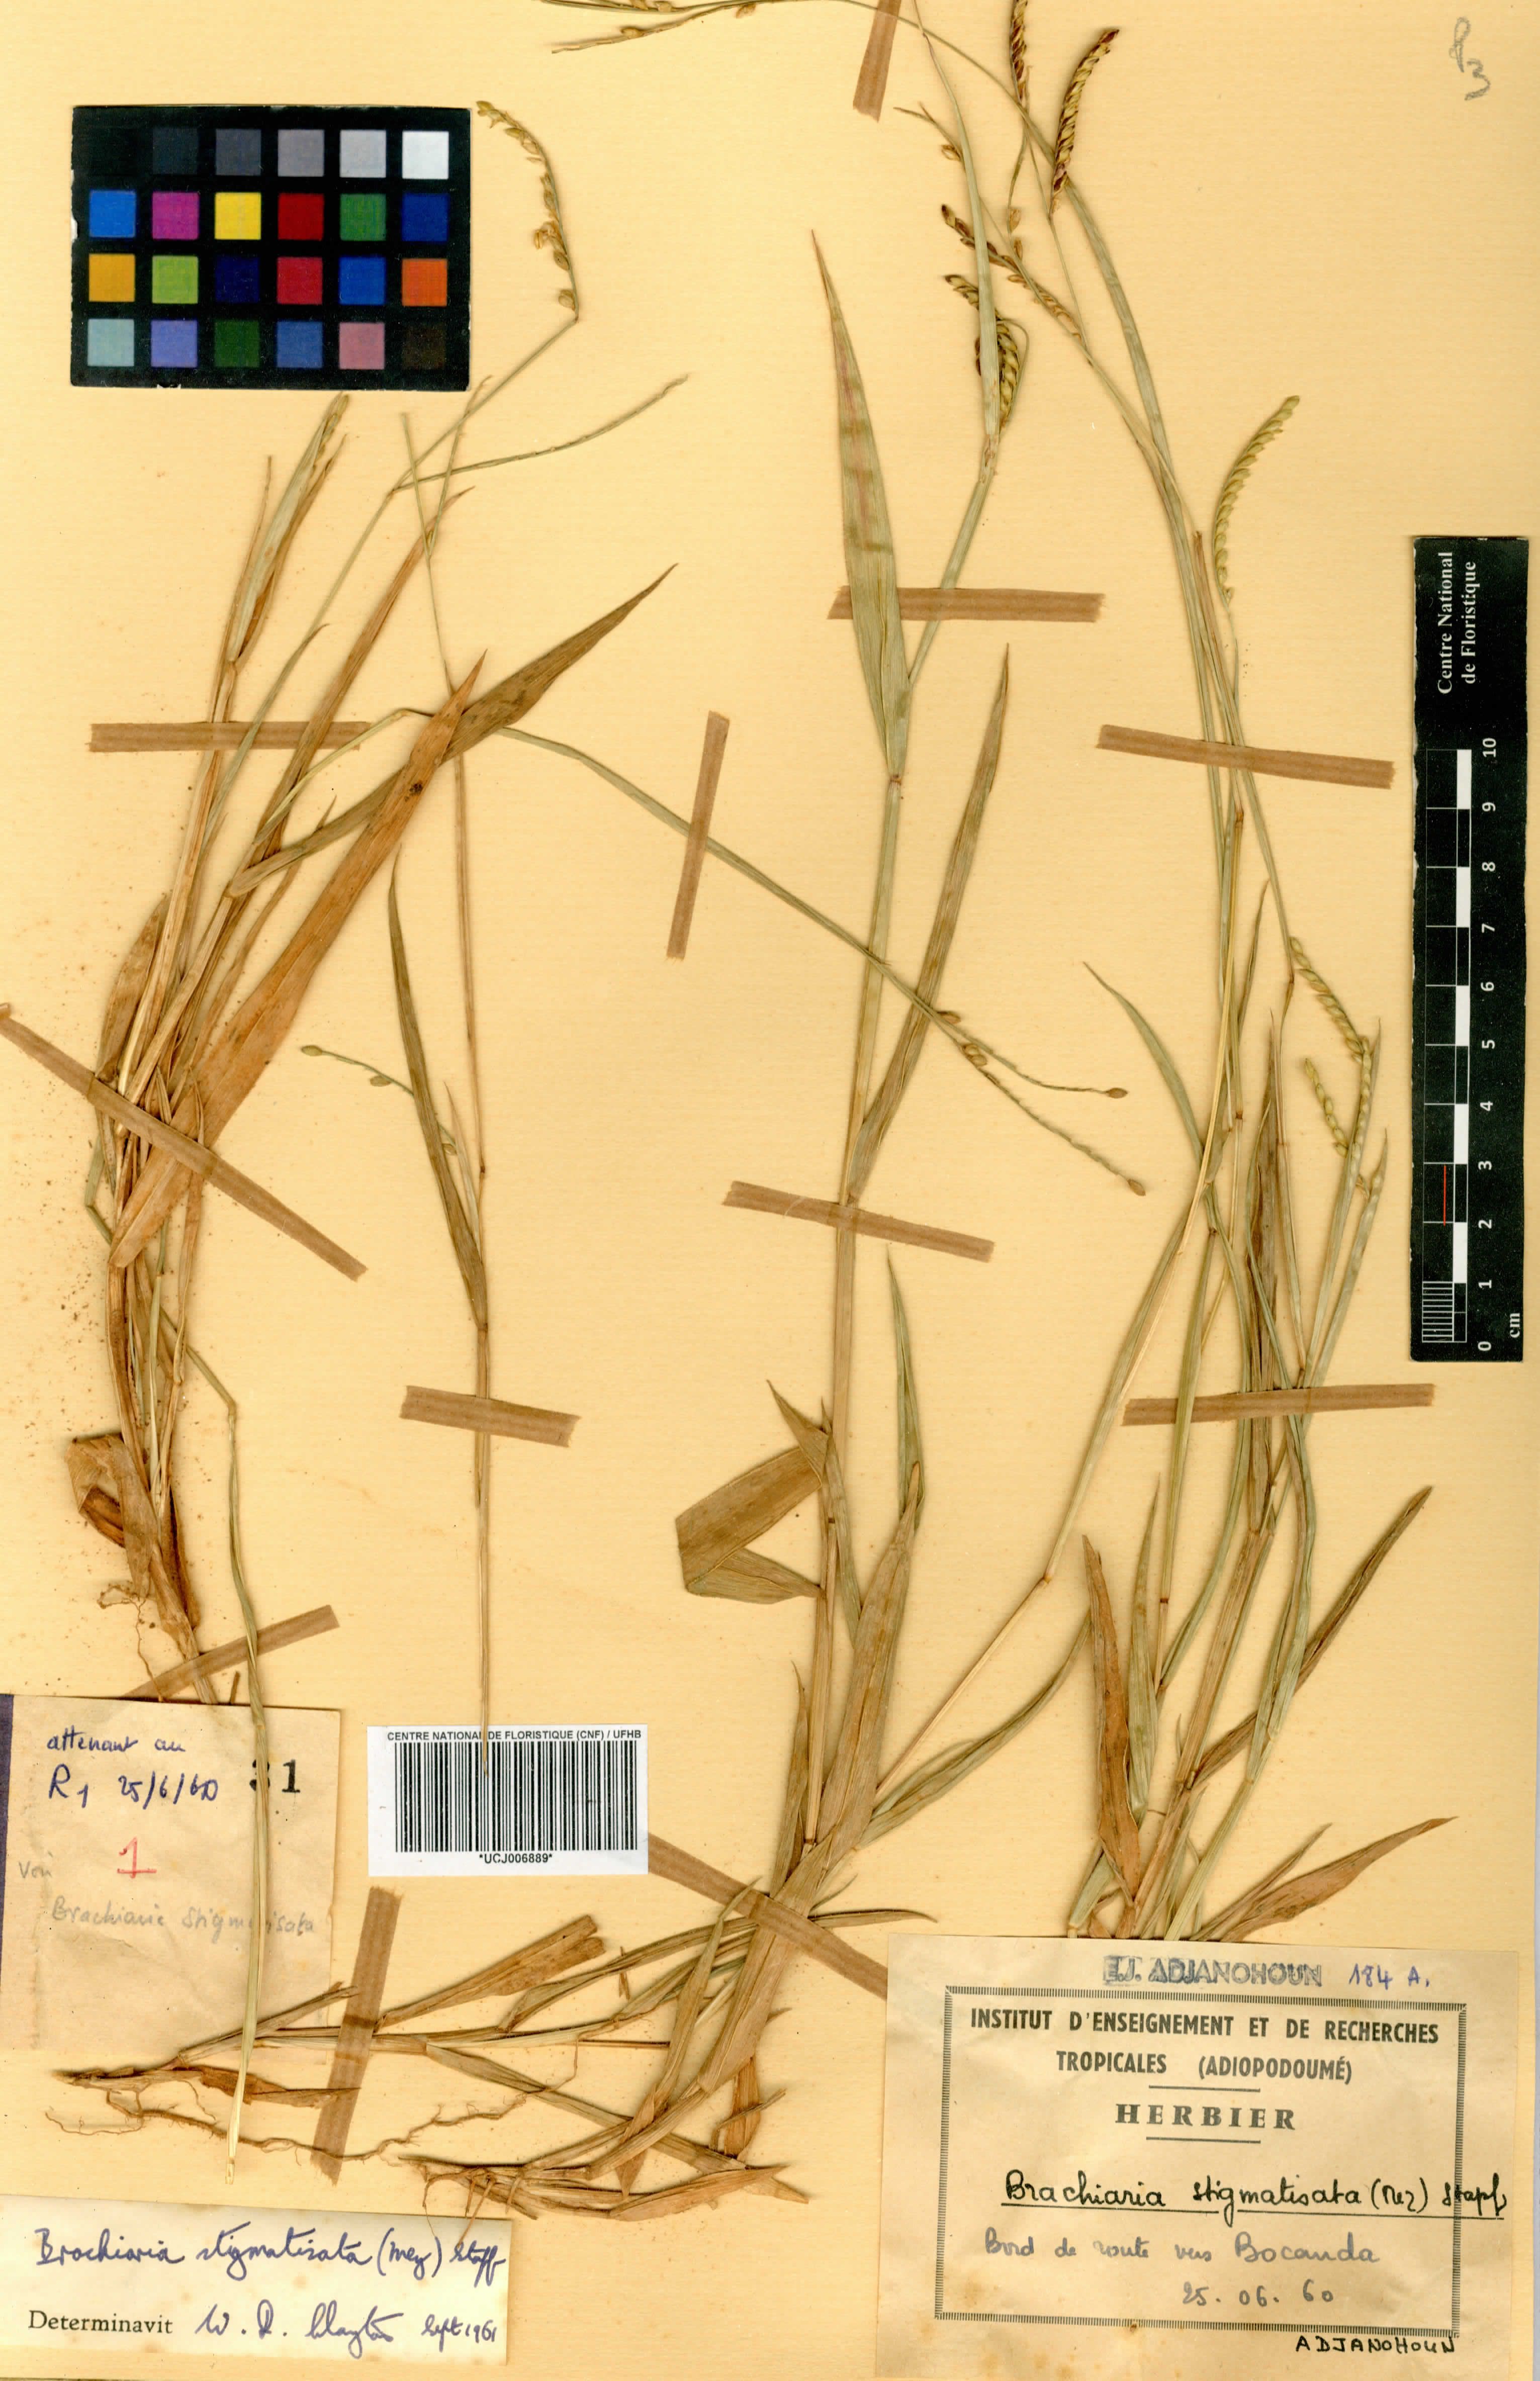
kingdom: Plantae
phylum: Tracheophyta
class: Liliopsida
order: Poales
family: Poaceae
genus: Urochloa
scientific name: Urochloa stigmatisata
